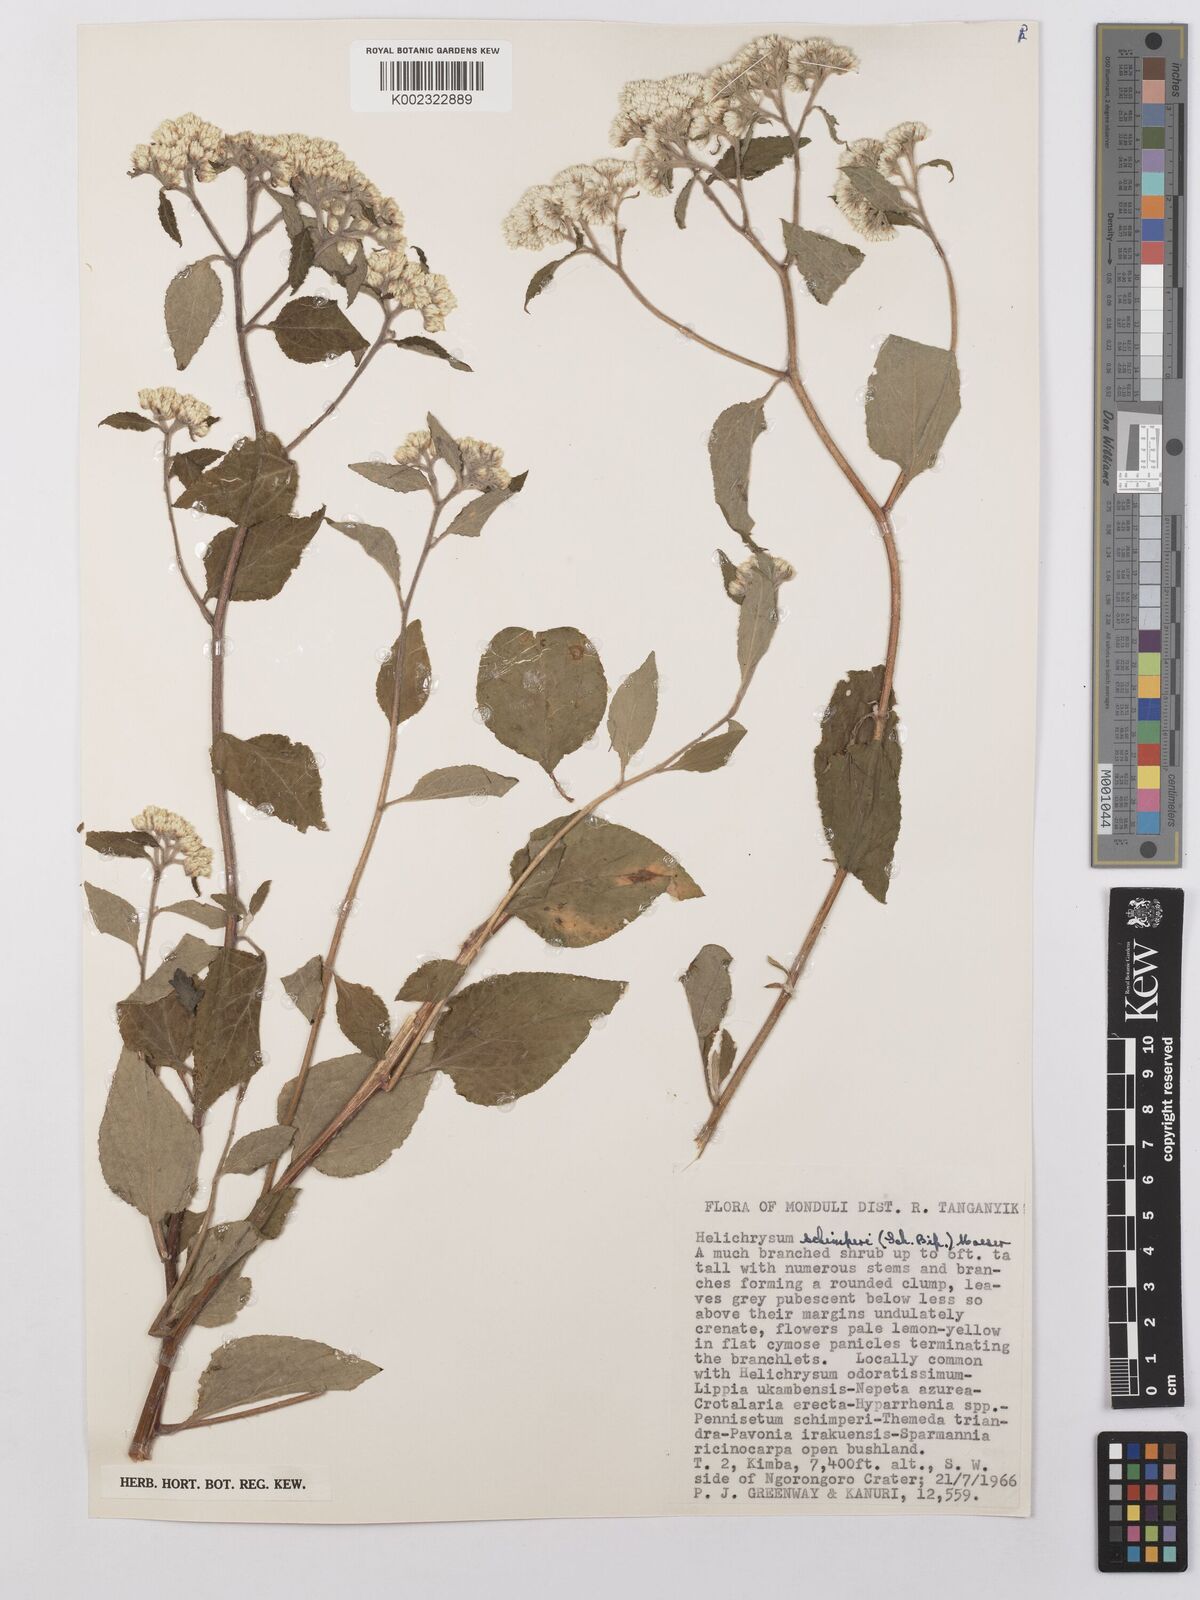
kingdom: Plantae
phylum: Tracheophyta
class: Magnoliopsida
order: Asterales
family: Asteraceae
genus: Helichrysum
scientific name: Helichrysum schimperi
